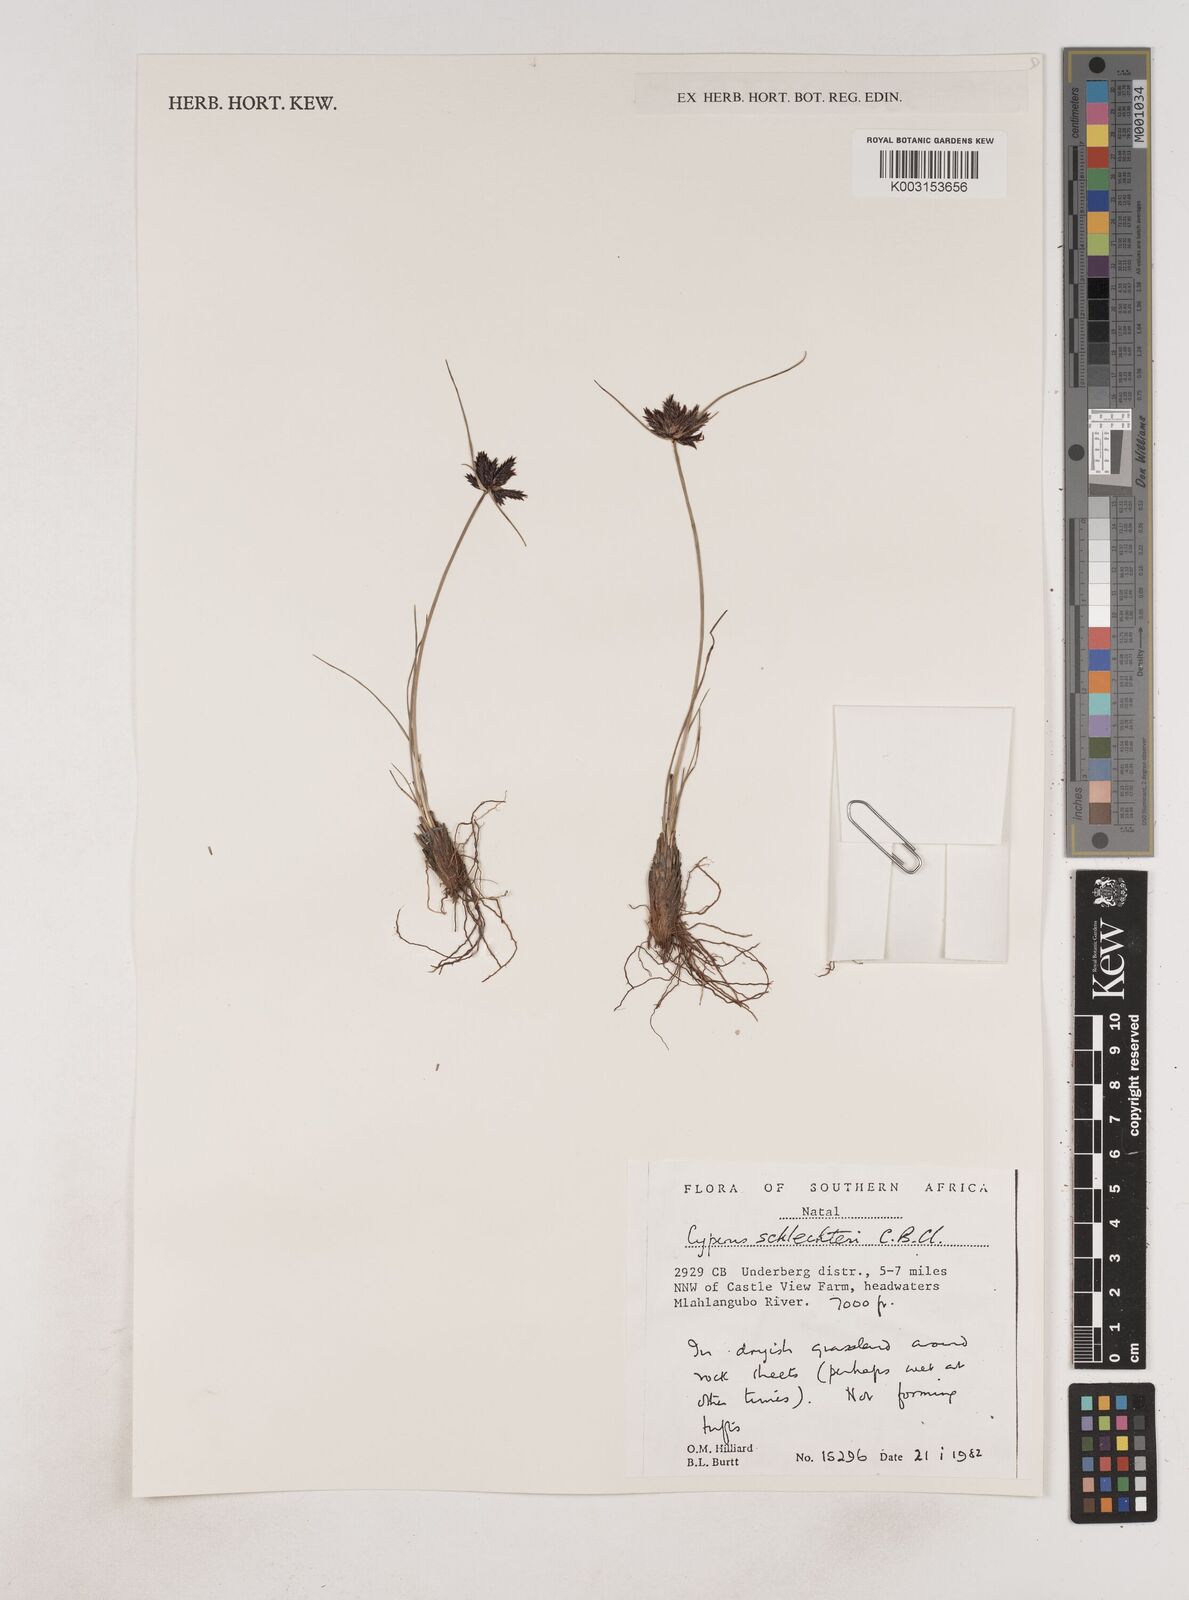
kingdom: Plantae
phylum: Tracheophyta
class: Liliopsida
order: Poales
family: Cyperaceae
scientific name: Cyperaceae
